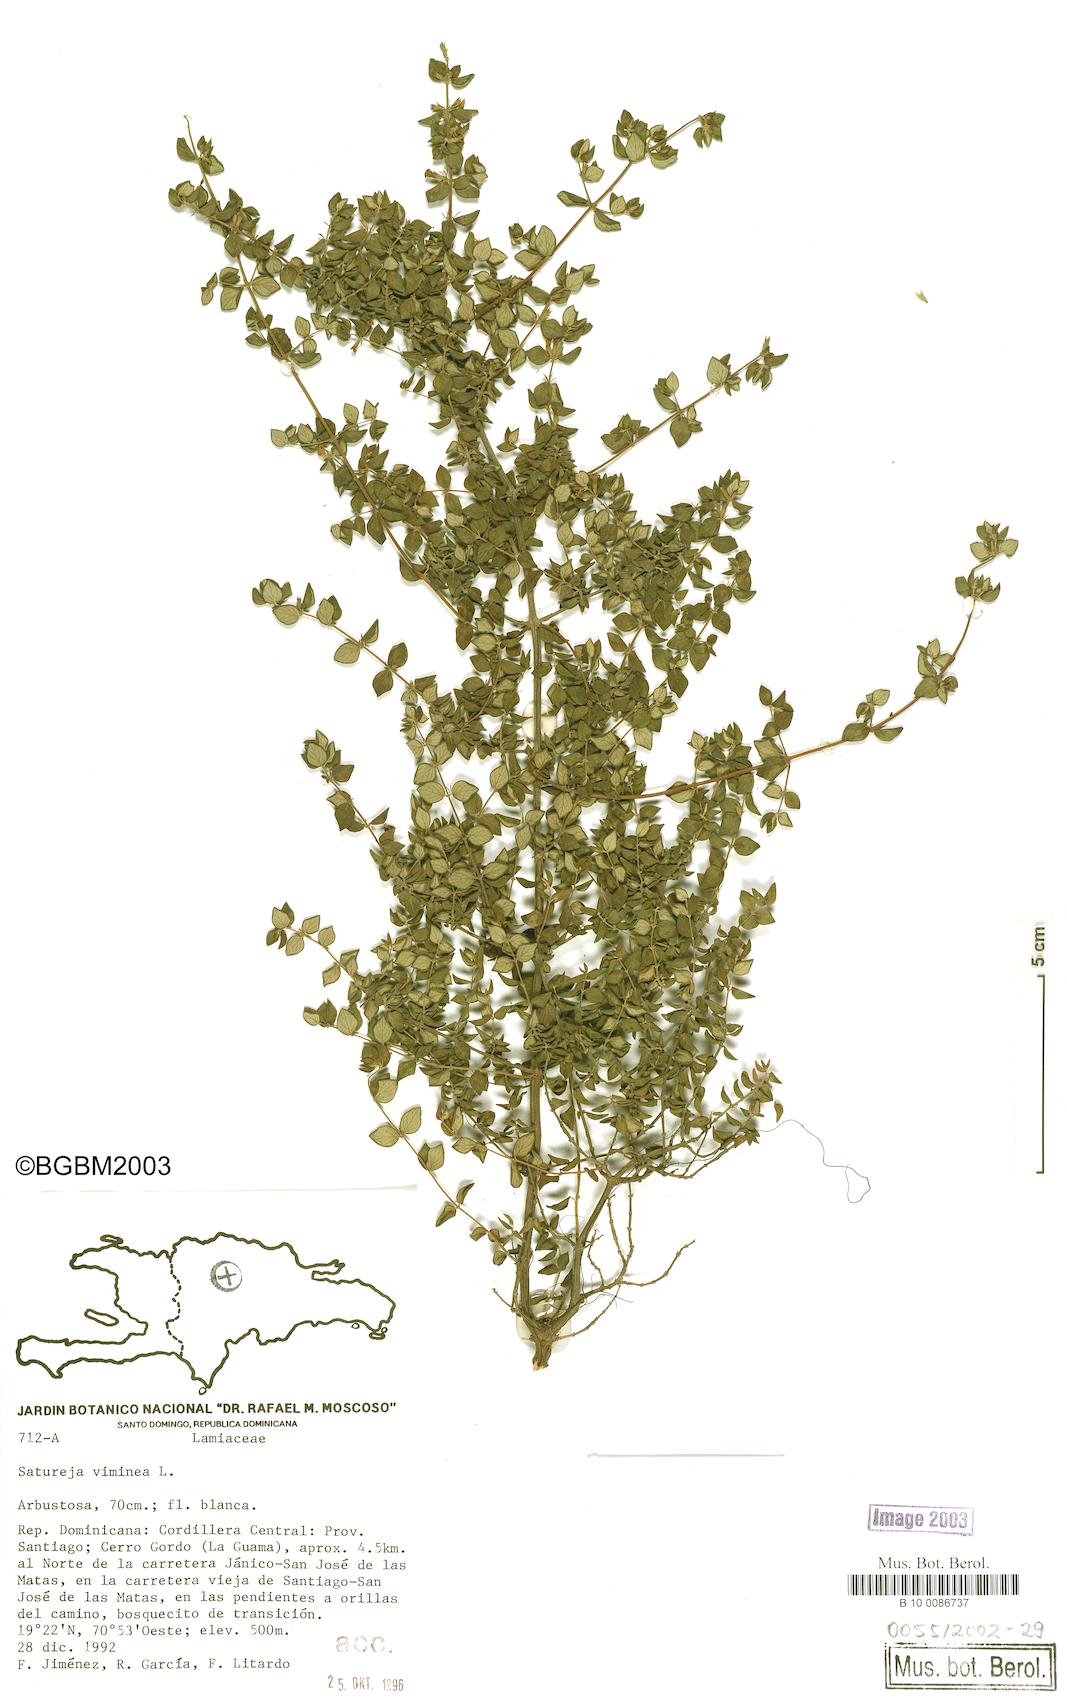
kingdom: Plantae
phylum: Tracheophyta
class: Magnoliopsida
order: Lamiales
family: Lamiaceae
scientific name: Lamiaceae
